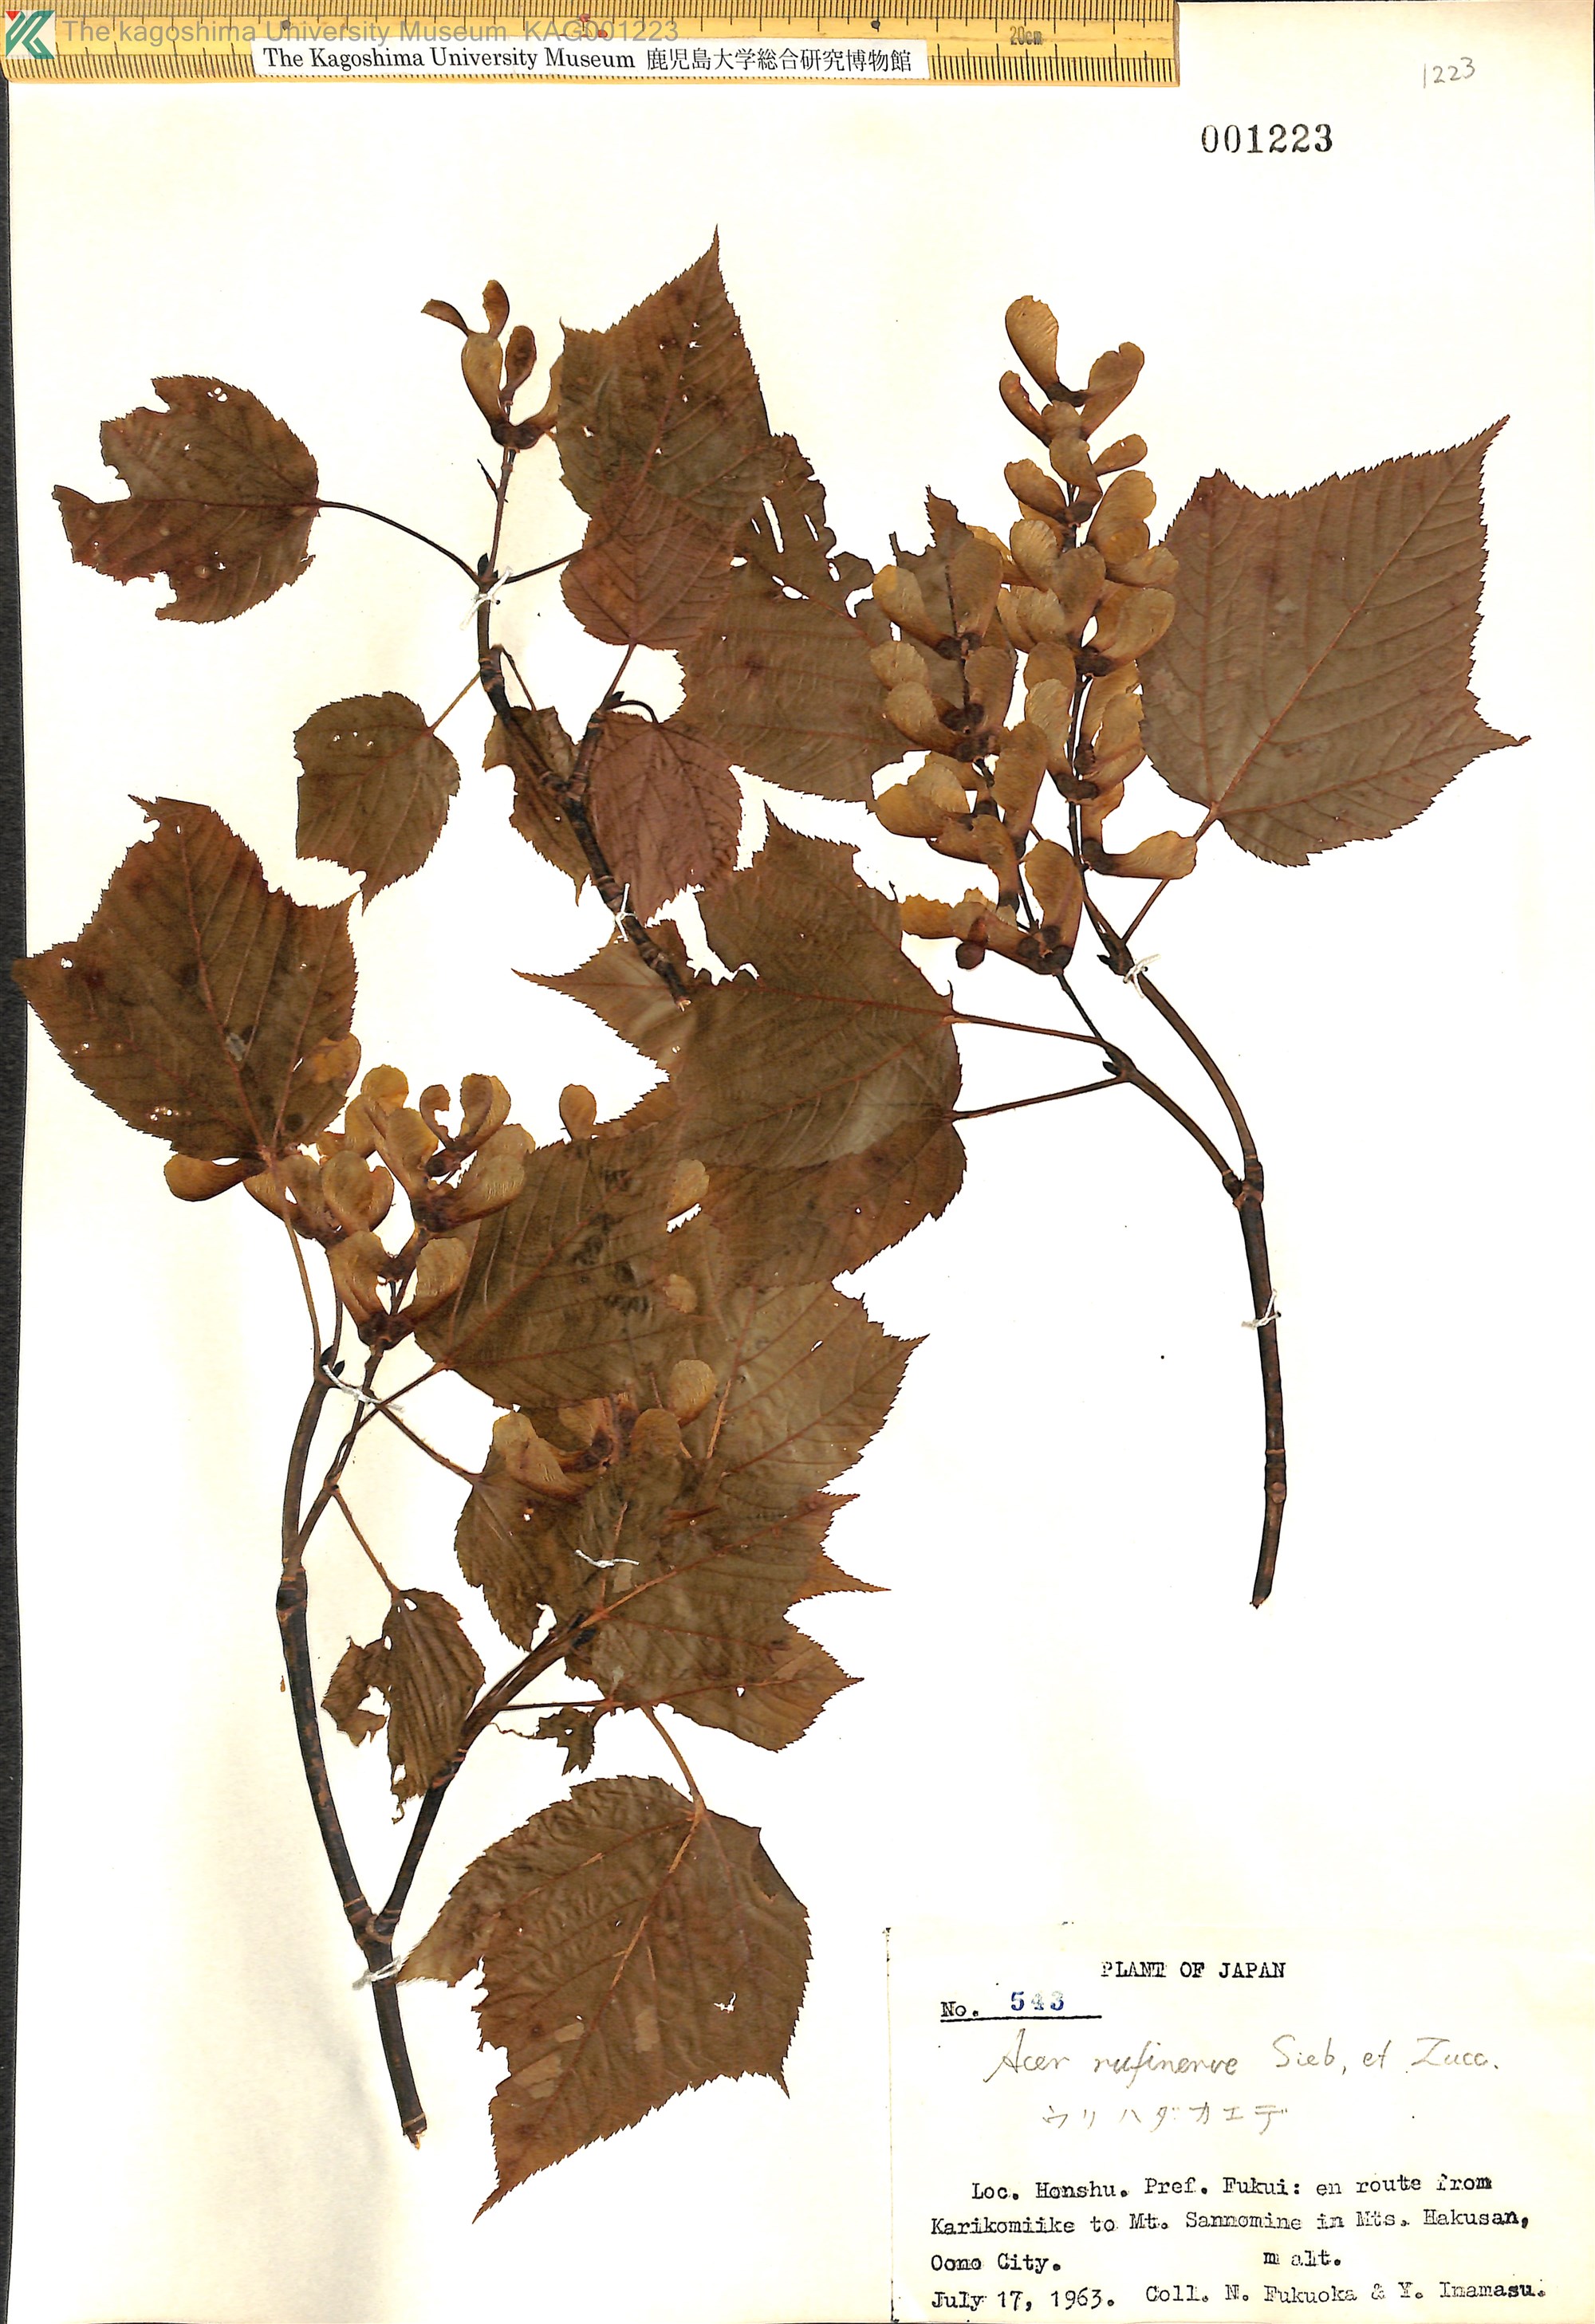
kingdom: Plantae
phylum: Tracheophyta
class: Magnoliopsida
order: Sapindales
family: Sapindaceae
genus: Acer
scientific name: Acer rufinerve
